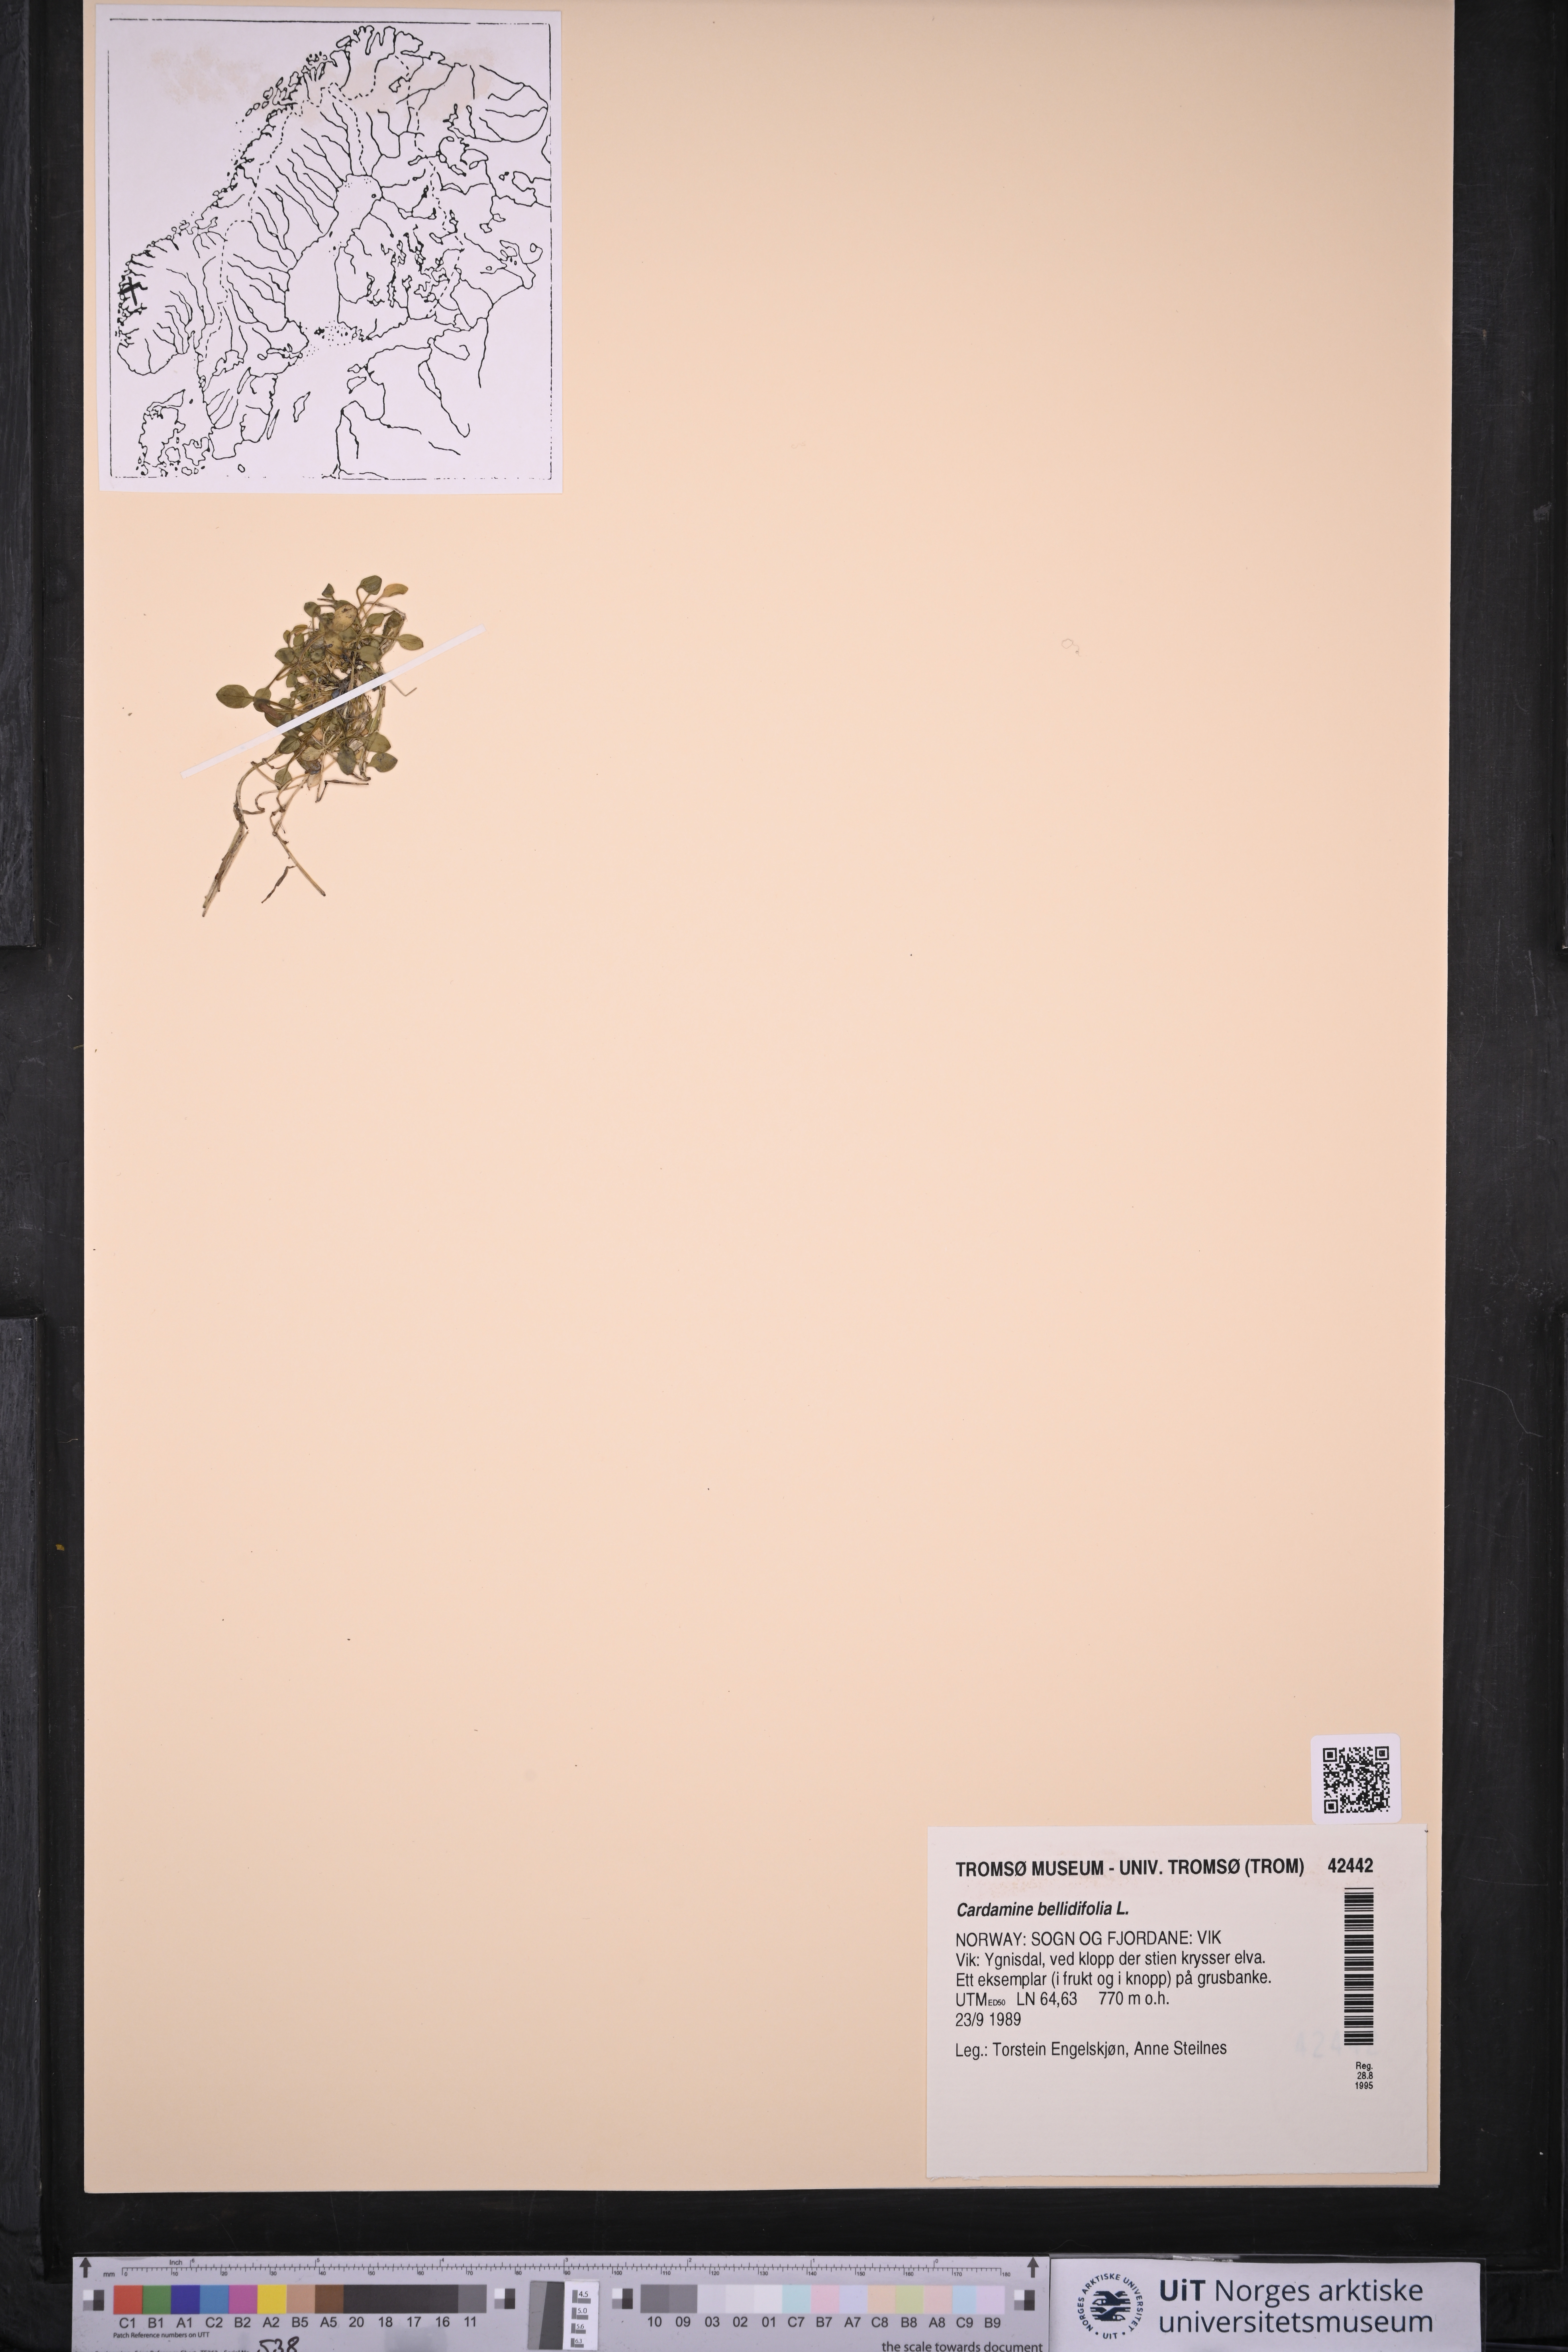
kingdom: Plantae
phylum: Tracheophyta
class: Magnoliopsida
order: Brassicales
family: Brassicaceae
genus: Cardamine
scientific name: Cardamine bellidifolia
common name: Alpine bittercress
